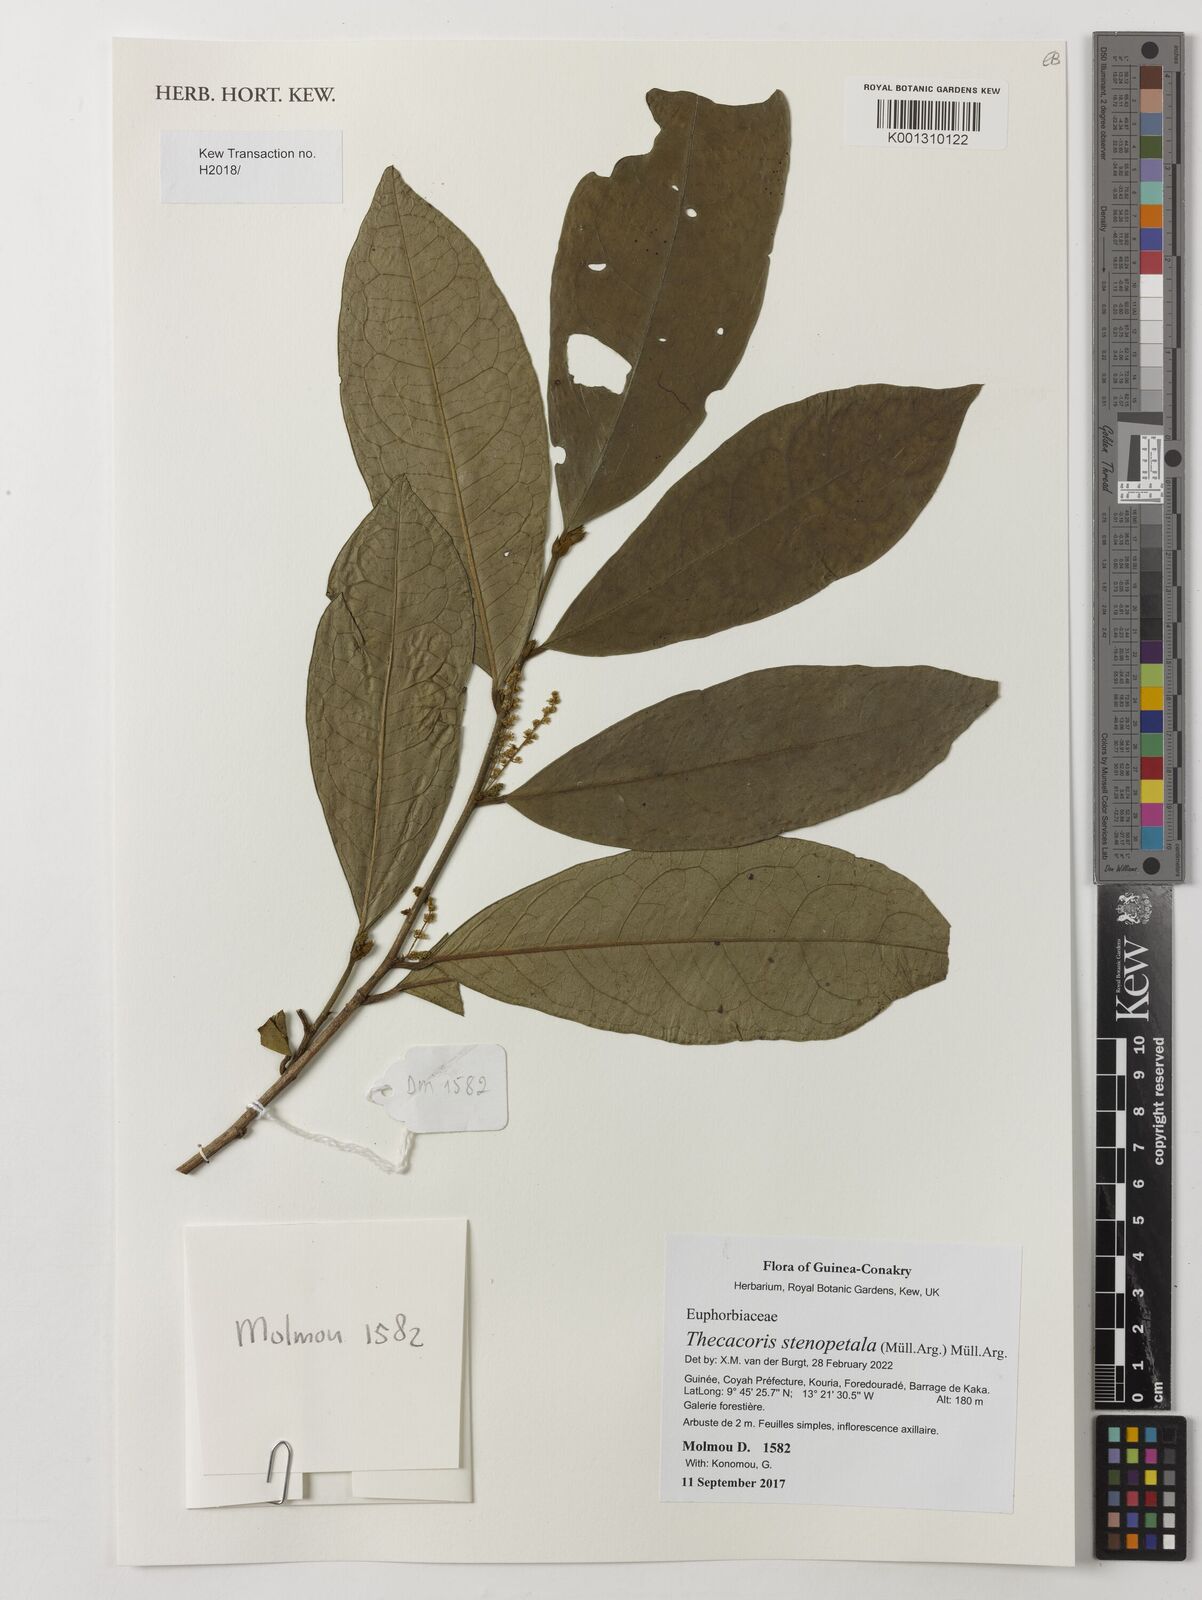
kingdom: Plantae
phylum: Tracheophyta
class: Magnoliopsida
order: Malpighiales
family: Phyllanthaceae
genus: Thecacoris
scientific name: Thecacoris stenopetala
